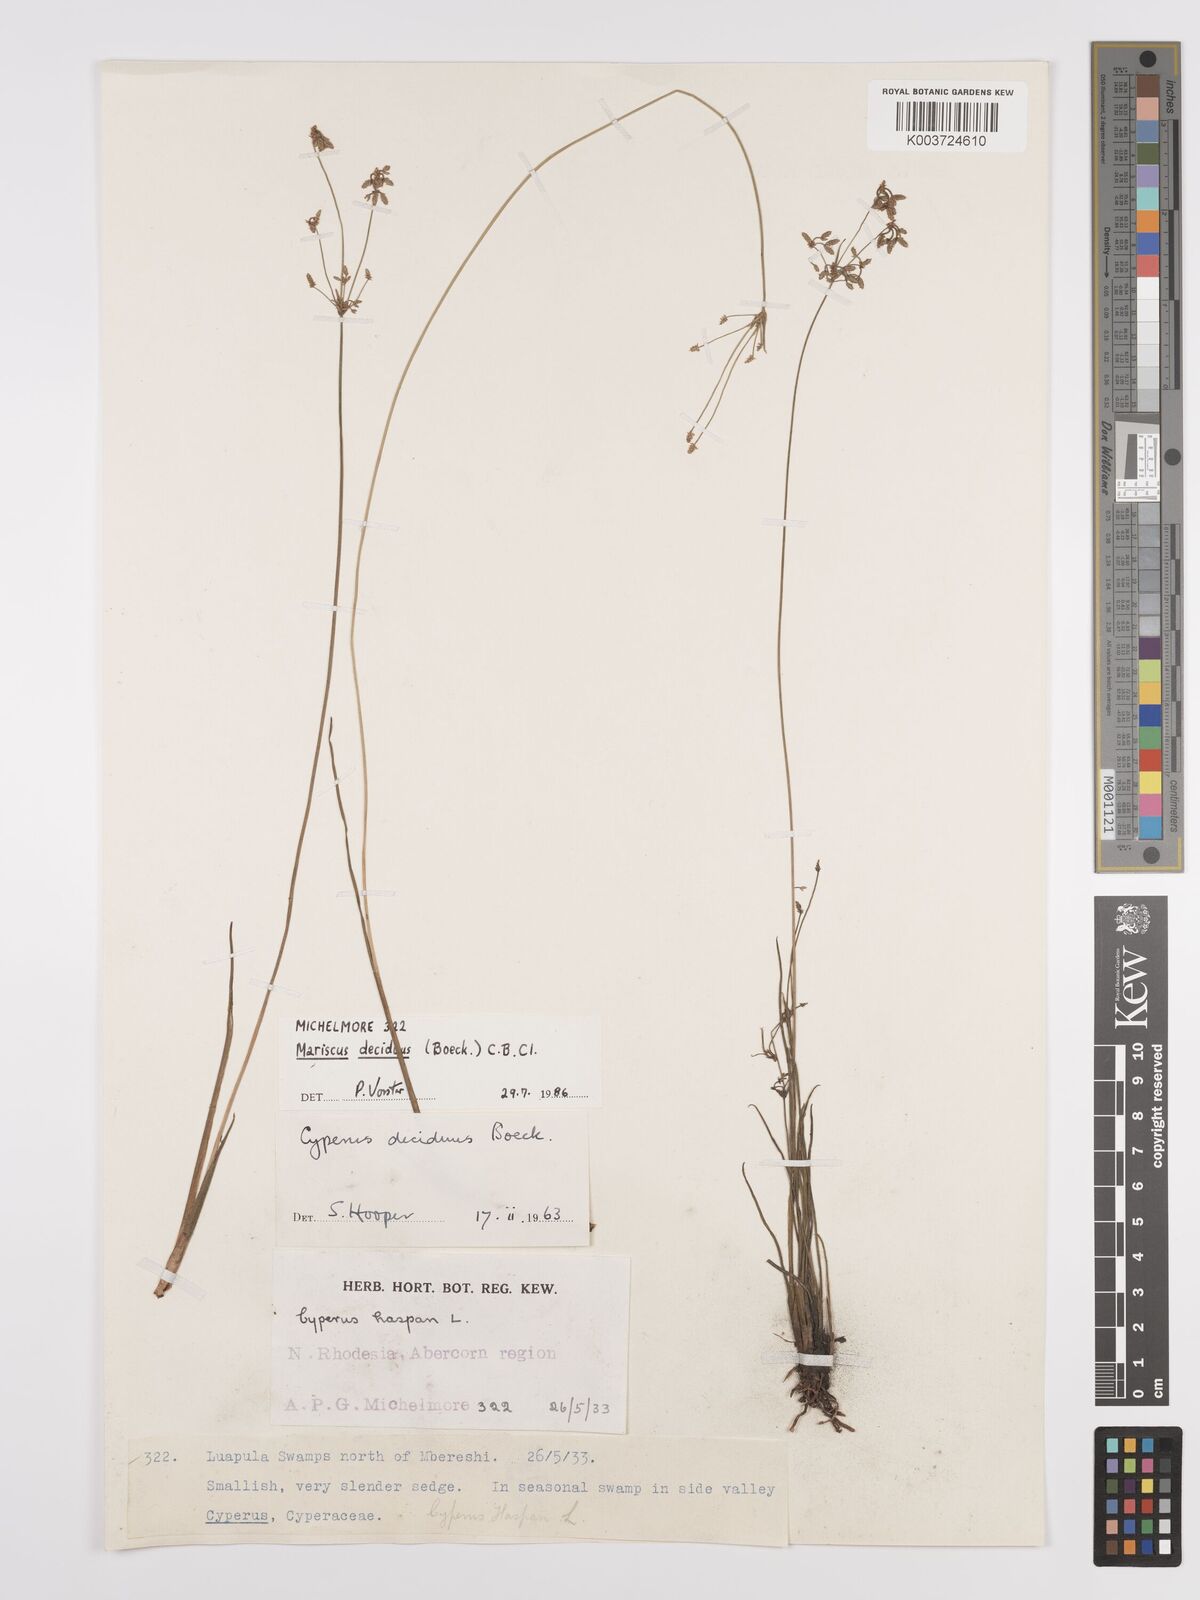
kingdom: Plantae
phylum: Tracheophyta
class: Liliopsida
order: Poales
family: Cyperaceae
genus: Cyperus
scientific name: Cyperus deciduus
